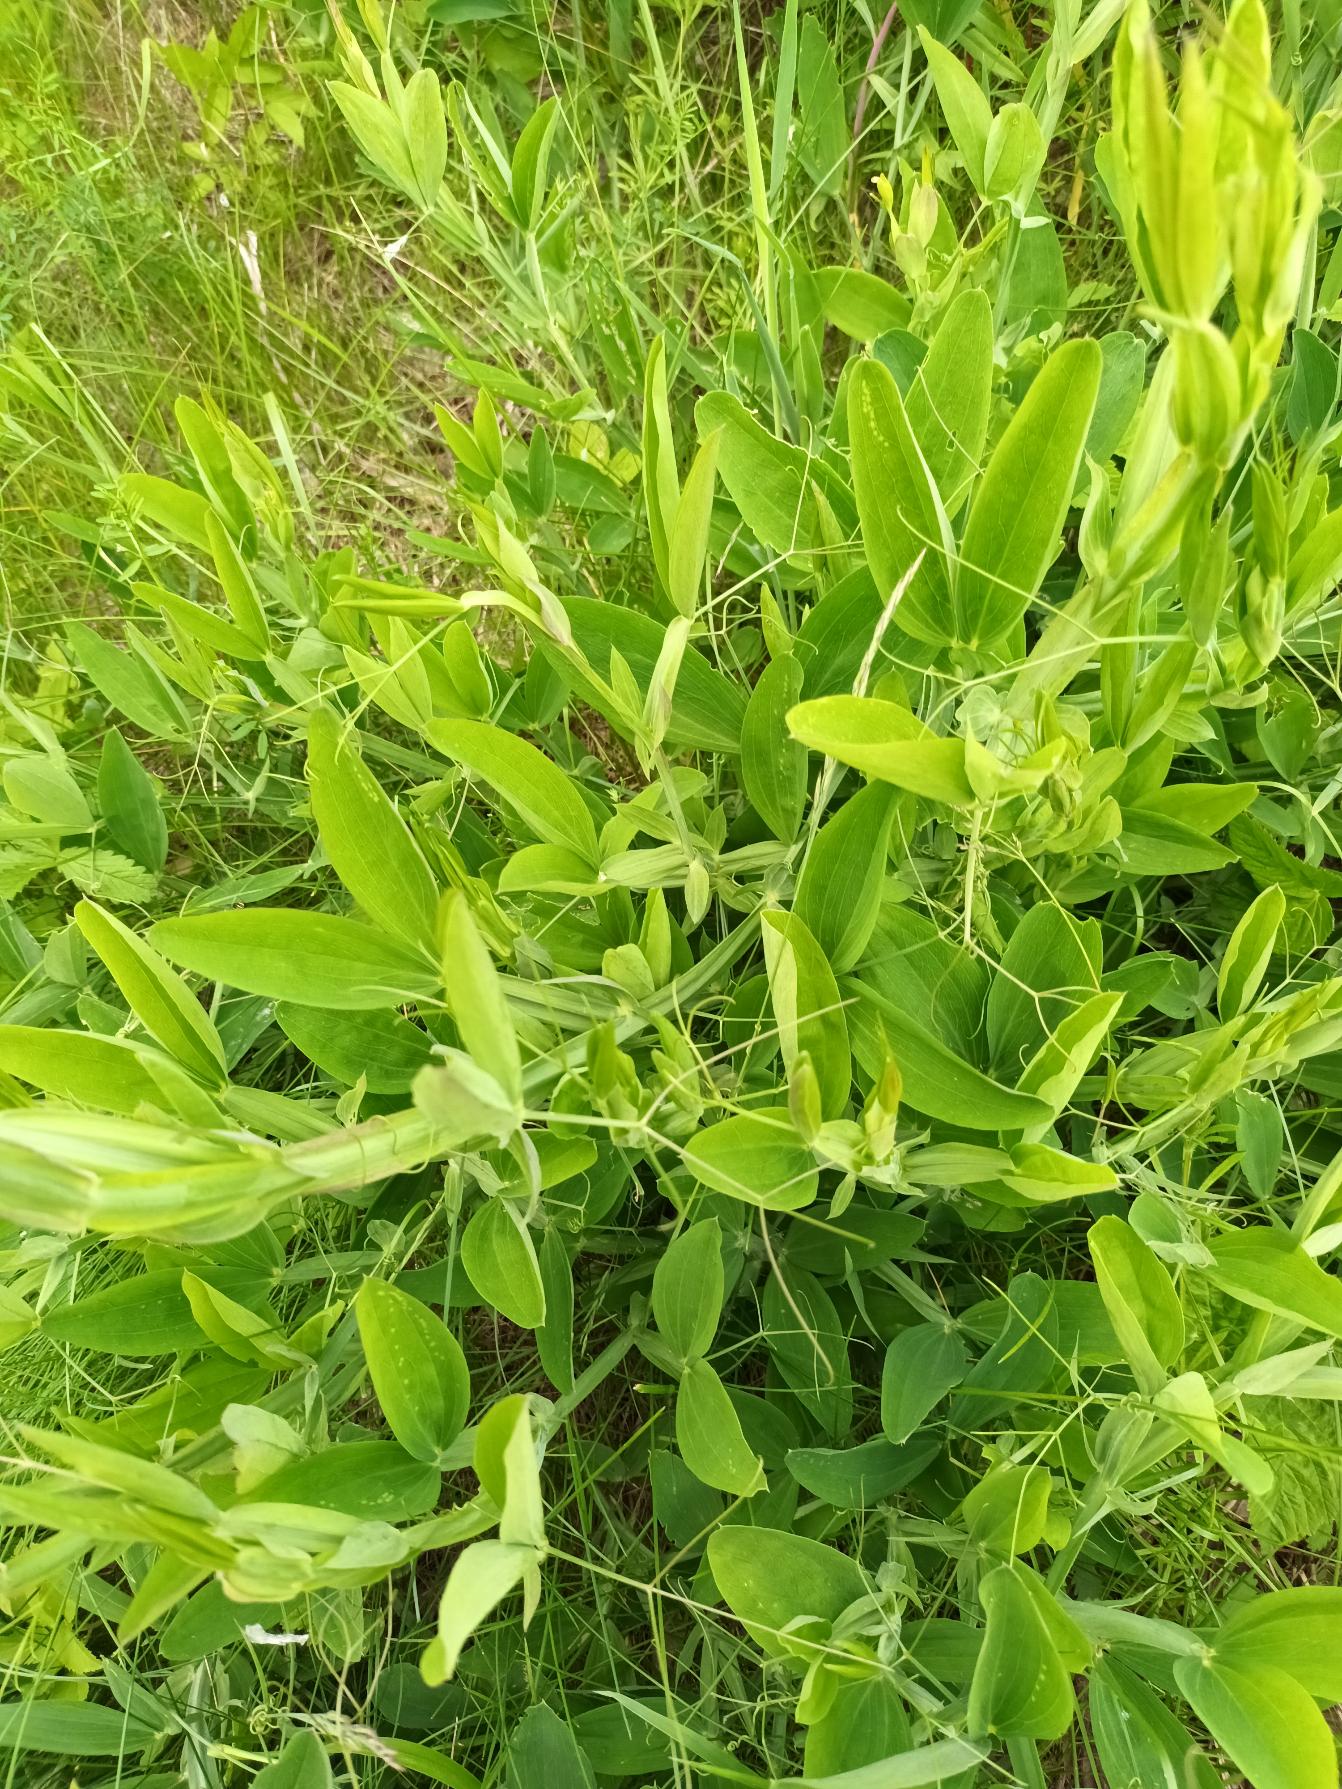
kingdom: Plantae
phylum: Tracheophyta
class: Magnoliopsida
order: Fabales
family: Fabaceae
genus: Lathyrus
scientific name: Lathyrus latifolius
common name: Flerårig ærteblomst
